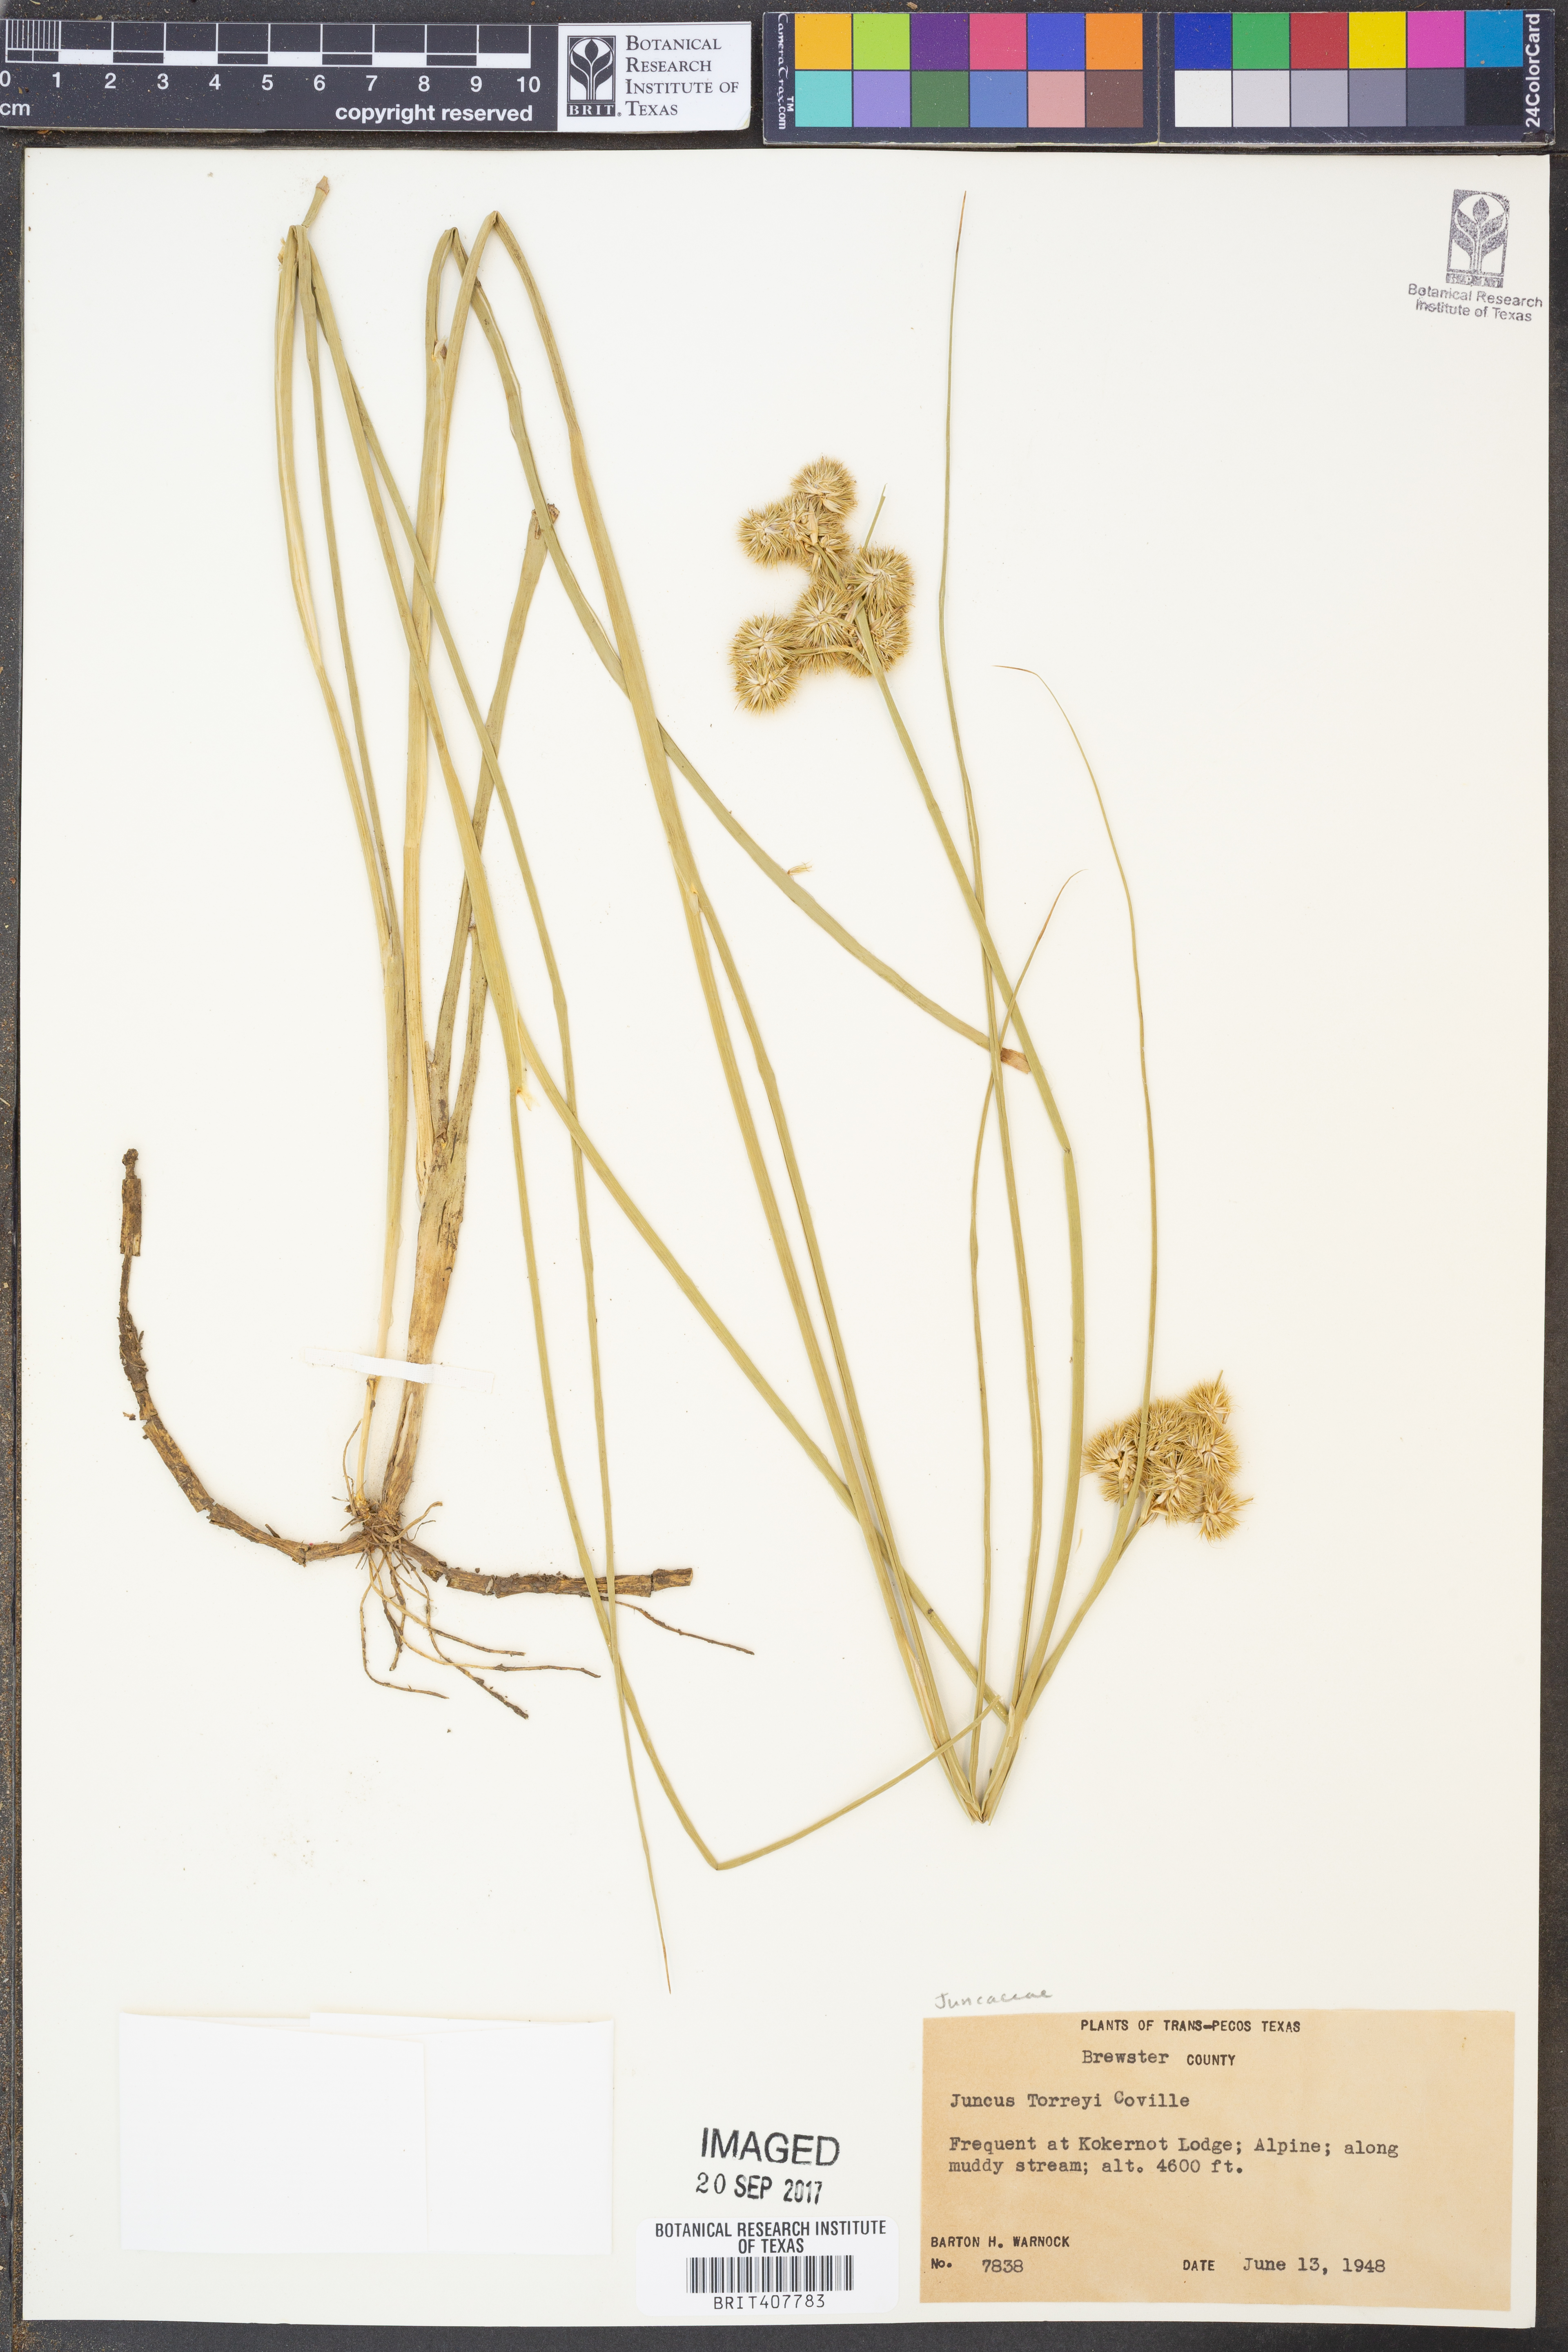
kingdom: Plantae
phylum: Tracheophyta
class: Liliopsida
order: Poales
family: Juncaceae
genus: Juncus
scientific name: Juncus torreyi
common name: Torrey's rush
